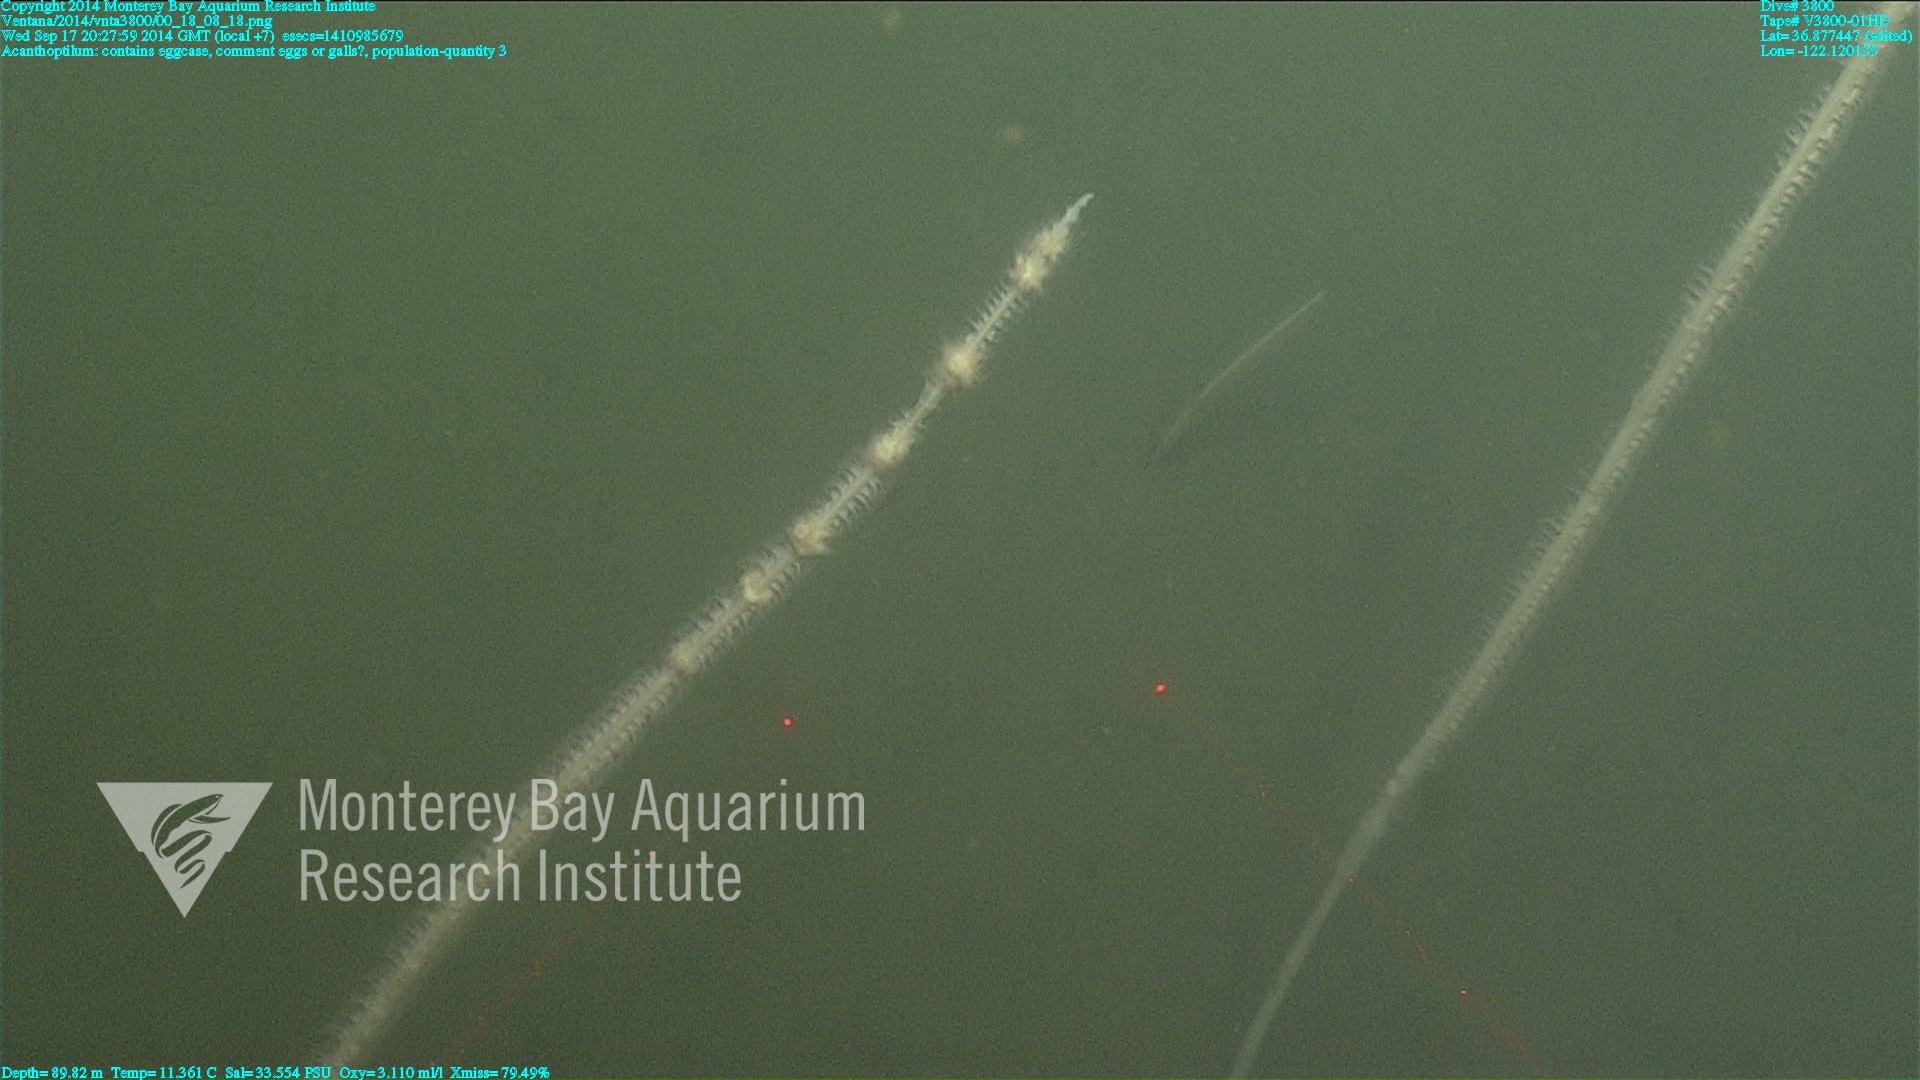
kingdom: Animalia
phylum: Cnidaria
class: Anthozoa
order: Scleralcyonacea
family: Virgulariidae
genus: Acanthoptilum
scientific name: Acanthoptilum
